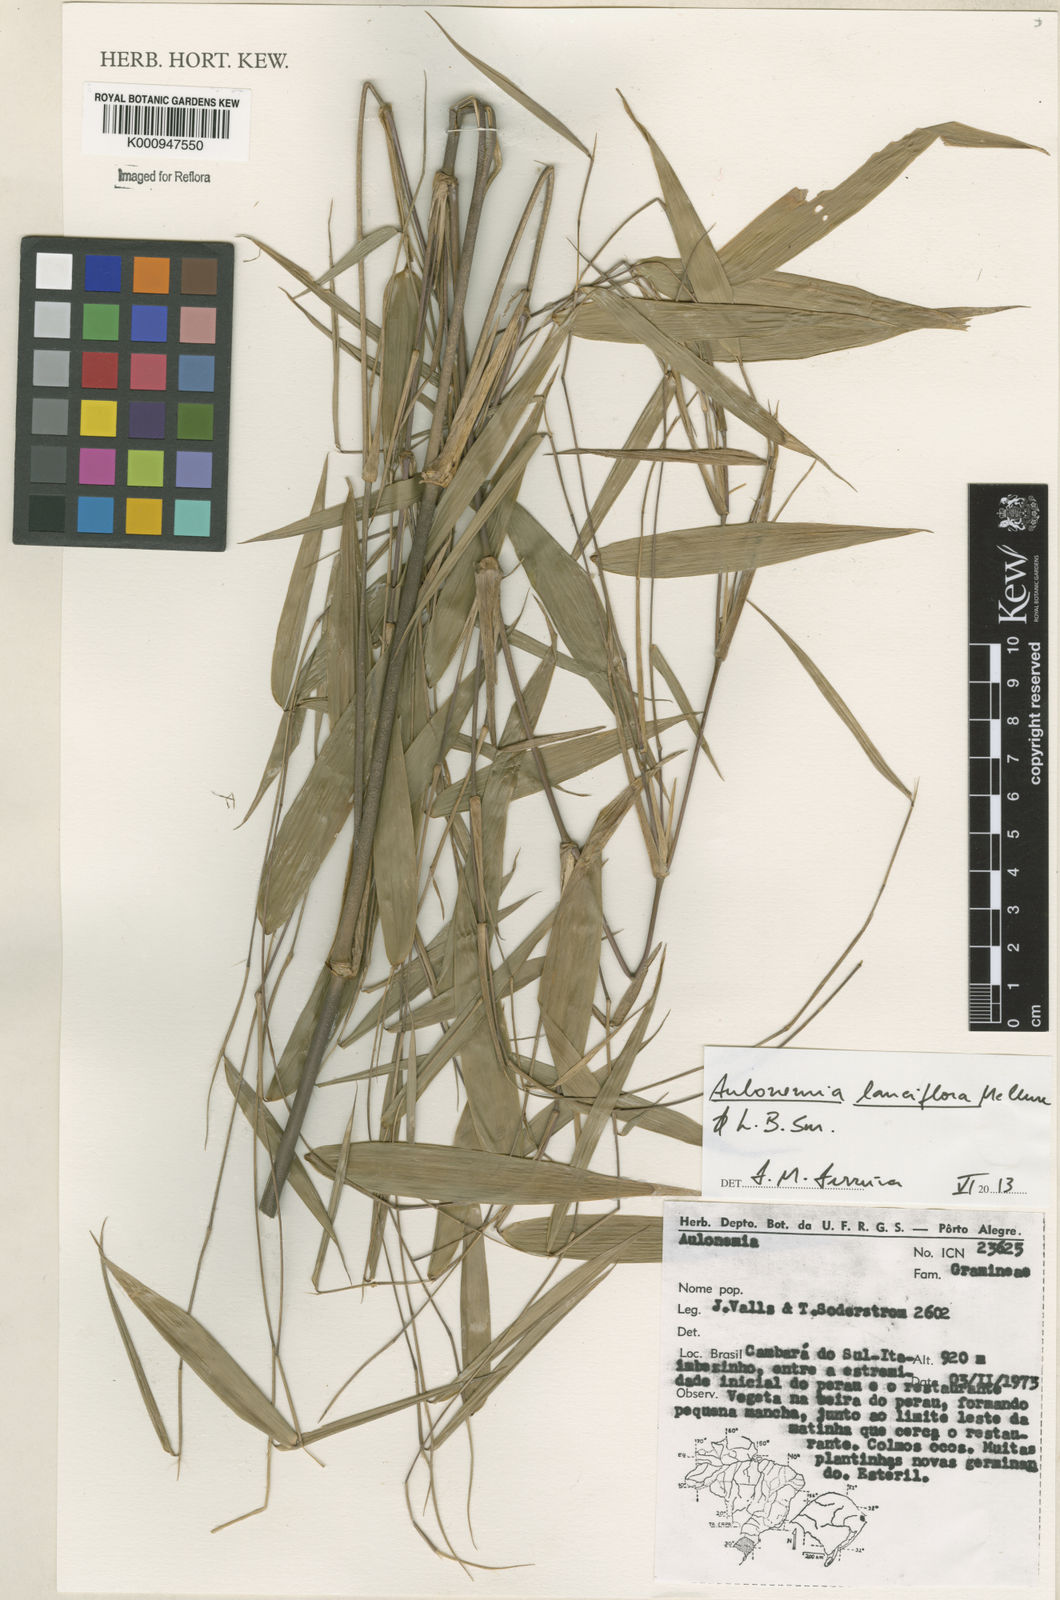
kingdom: Plantae
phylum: Tracheophyta
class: Liliopsida
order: Poales
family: Poaceae
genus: Colanthelia
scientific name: Colanthelia lanciflora
